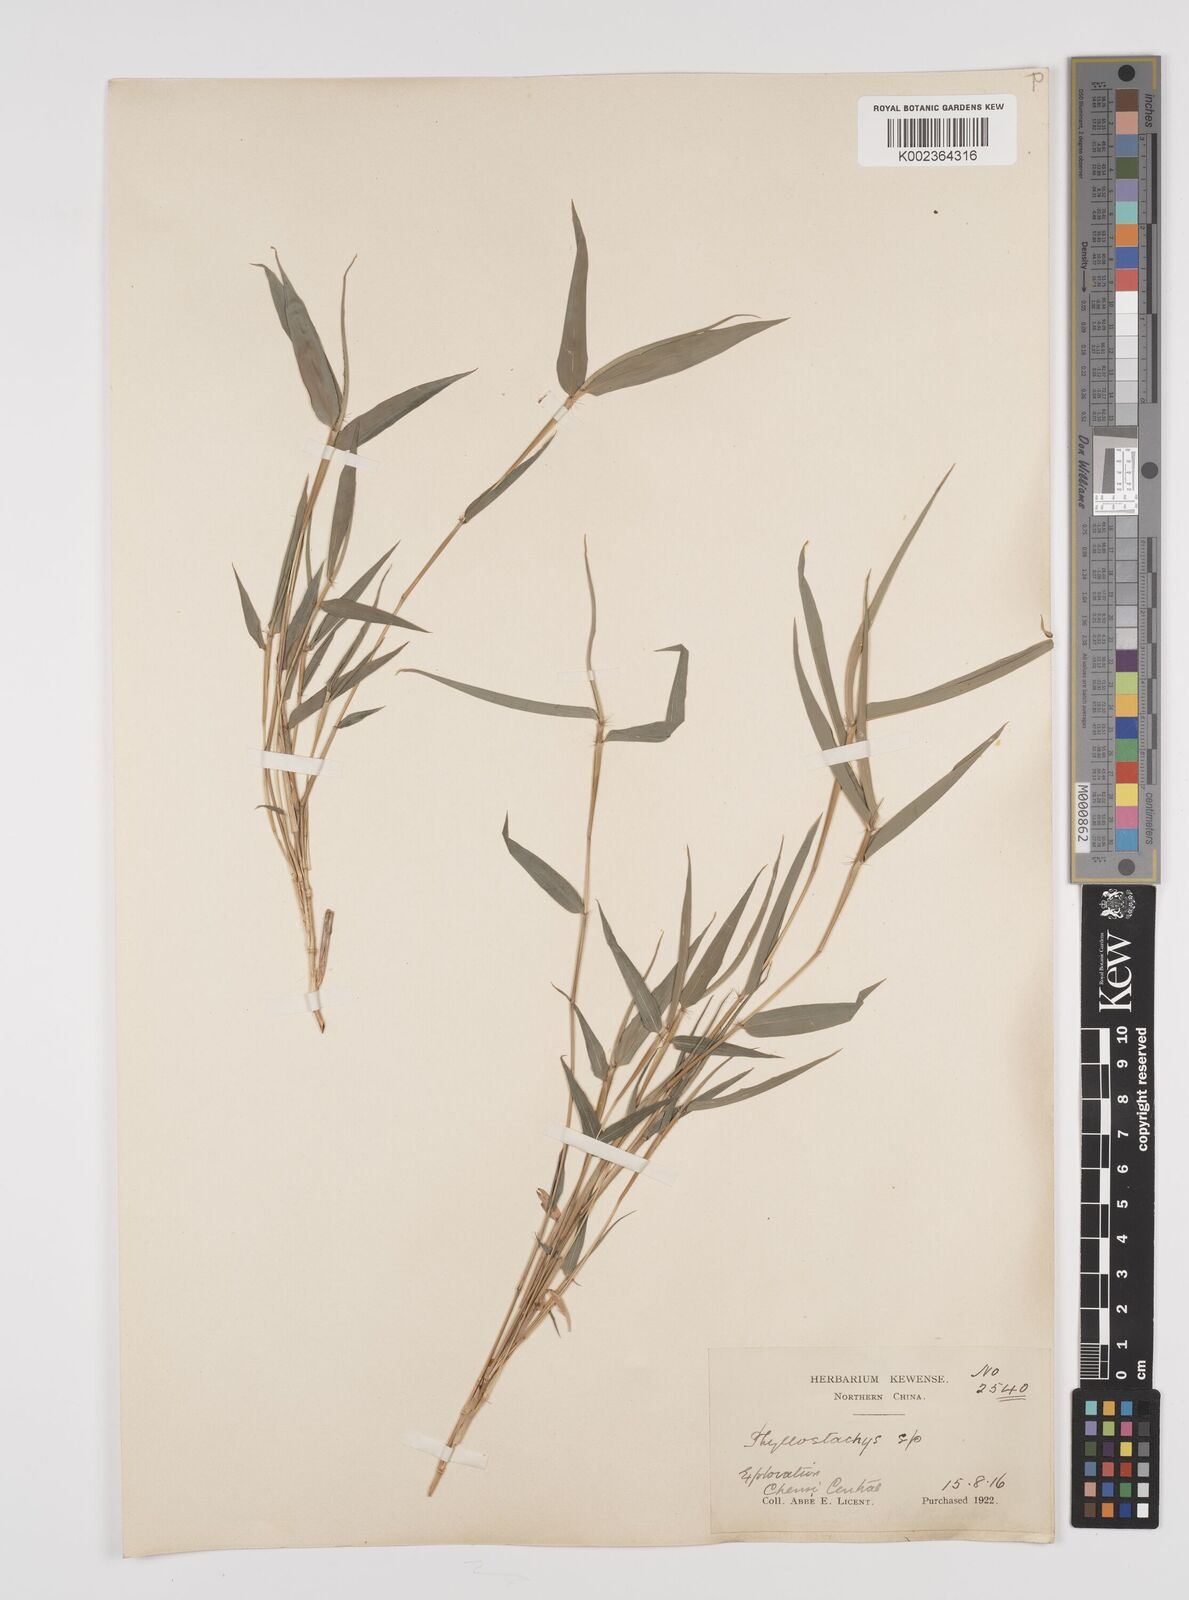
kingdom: Plantae
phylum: Tracheophyta
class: Liliopsida
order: Poales
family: Poaceae
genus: Phyllostachys
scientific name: Phyllostachys
